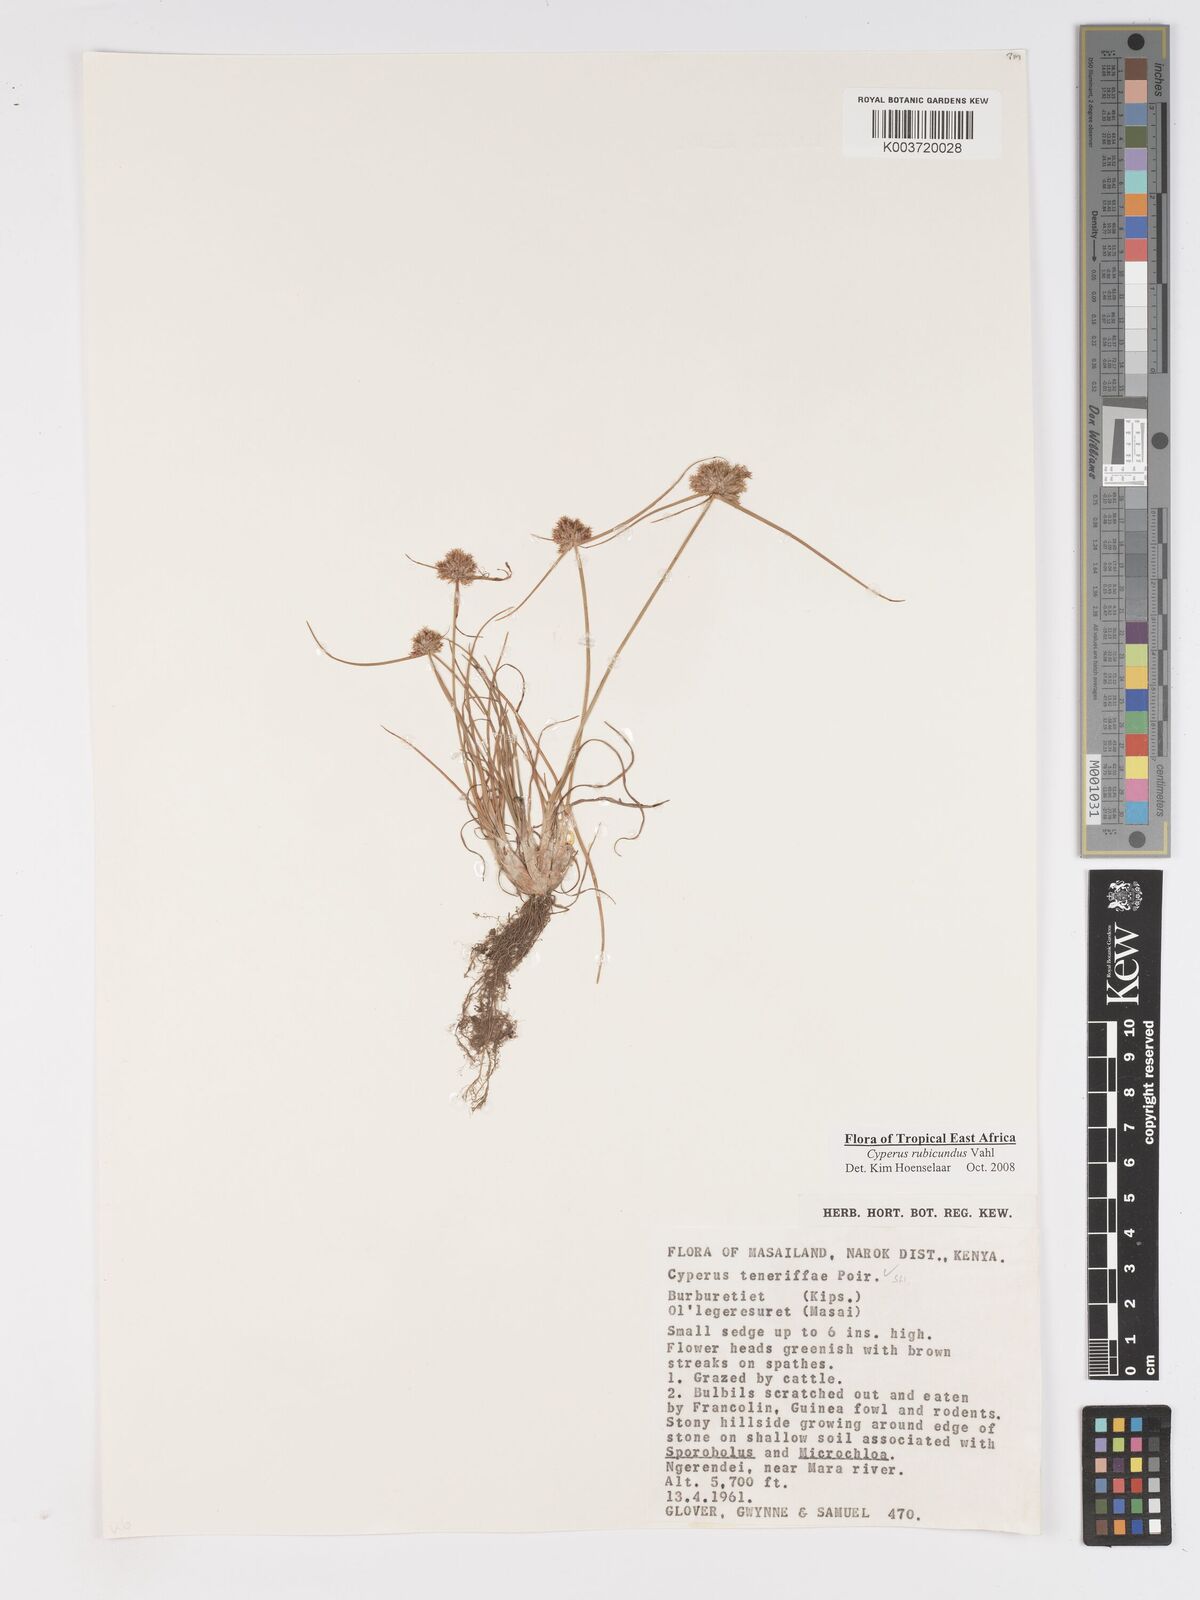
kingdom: Plantae
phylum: Tracheophyta
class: Liliopsida
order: Poales
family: Cyperaceae
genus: Cyperus
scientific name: Cyperus rubicundus
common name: Coco-grass
